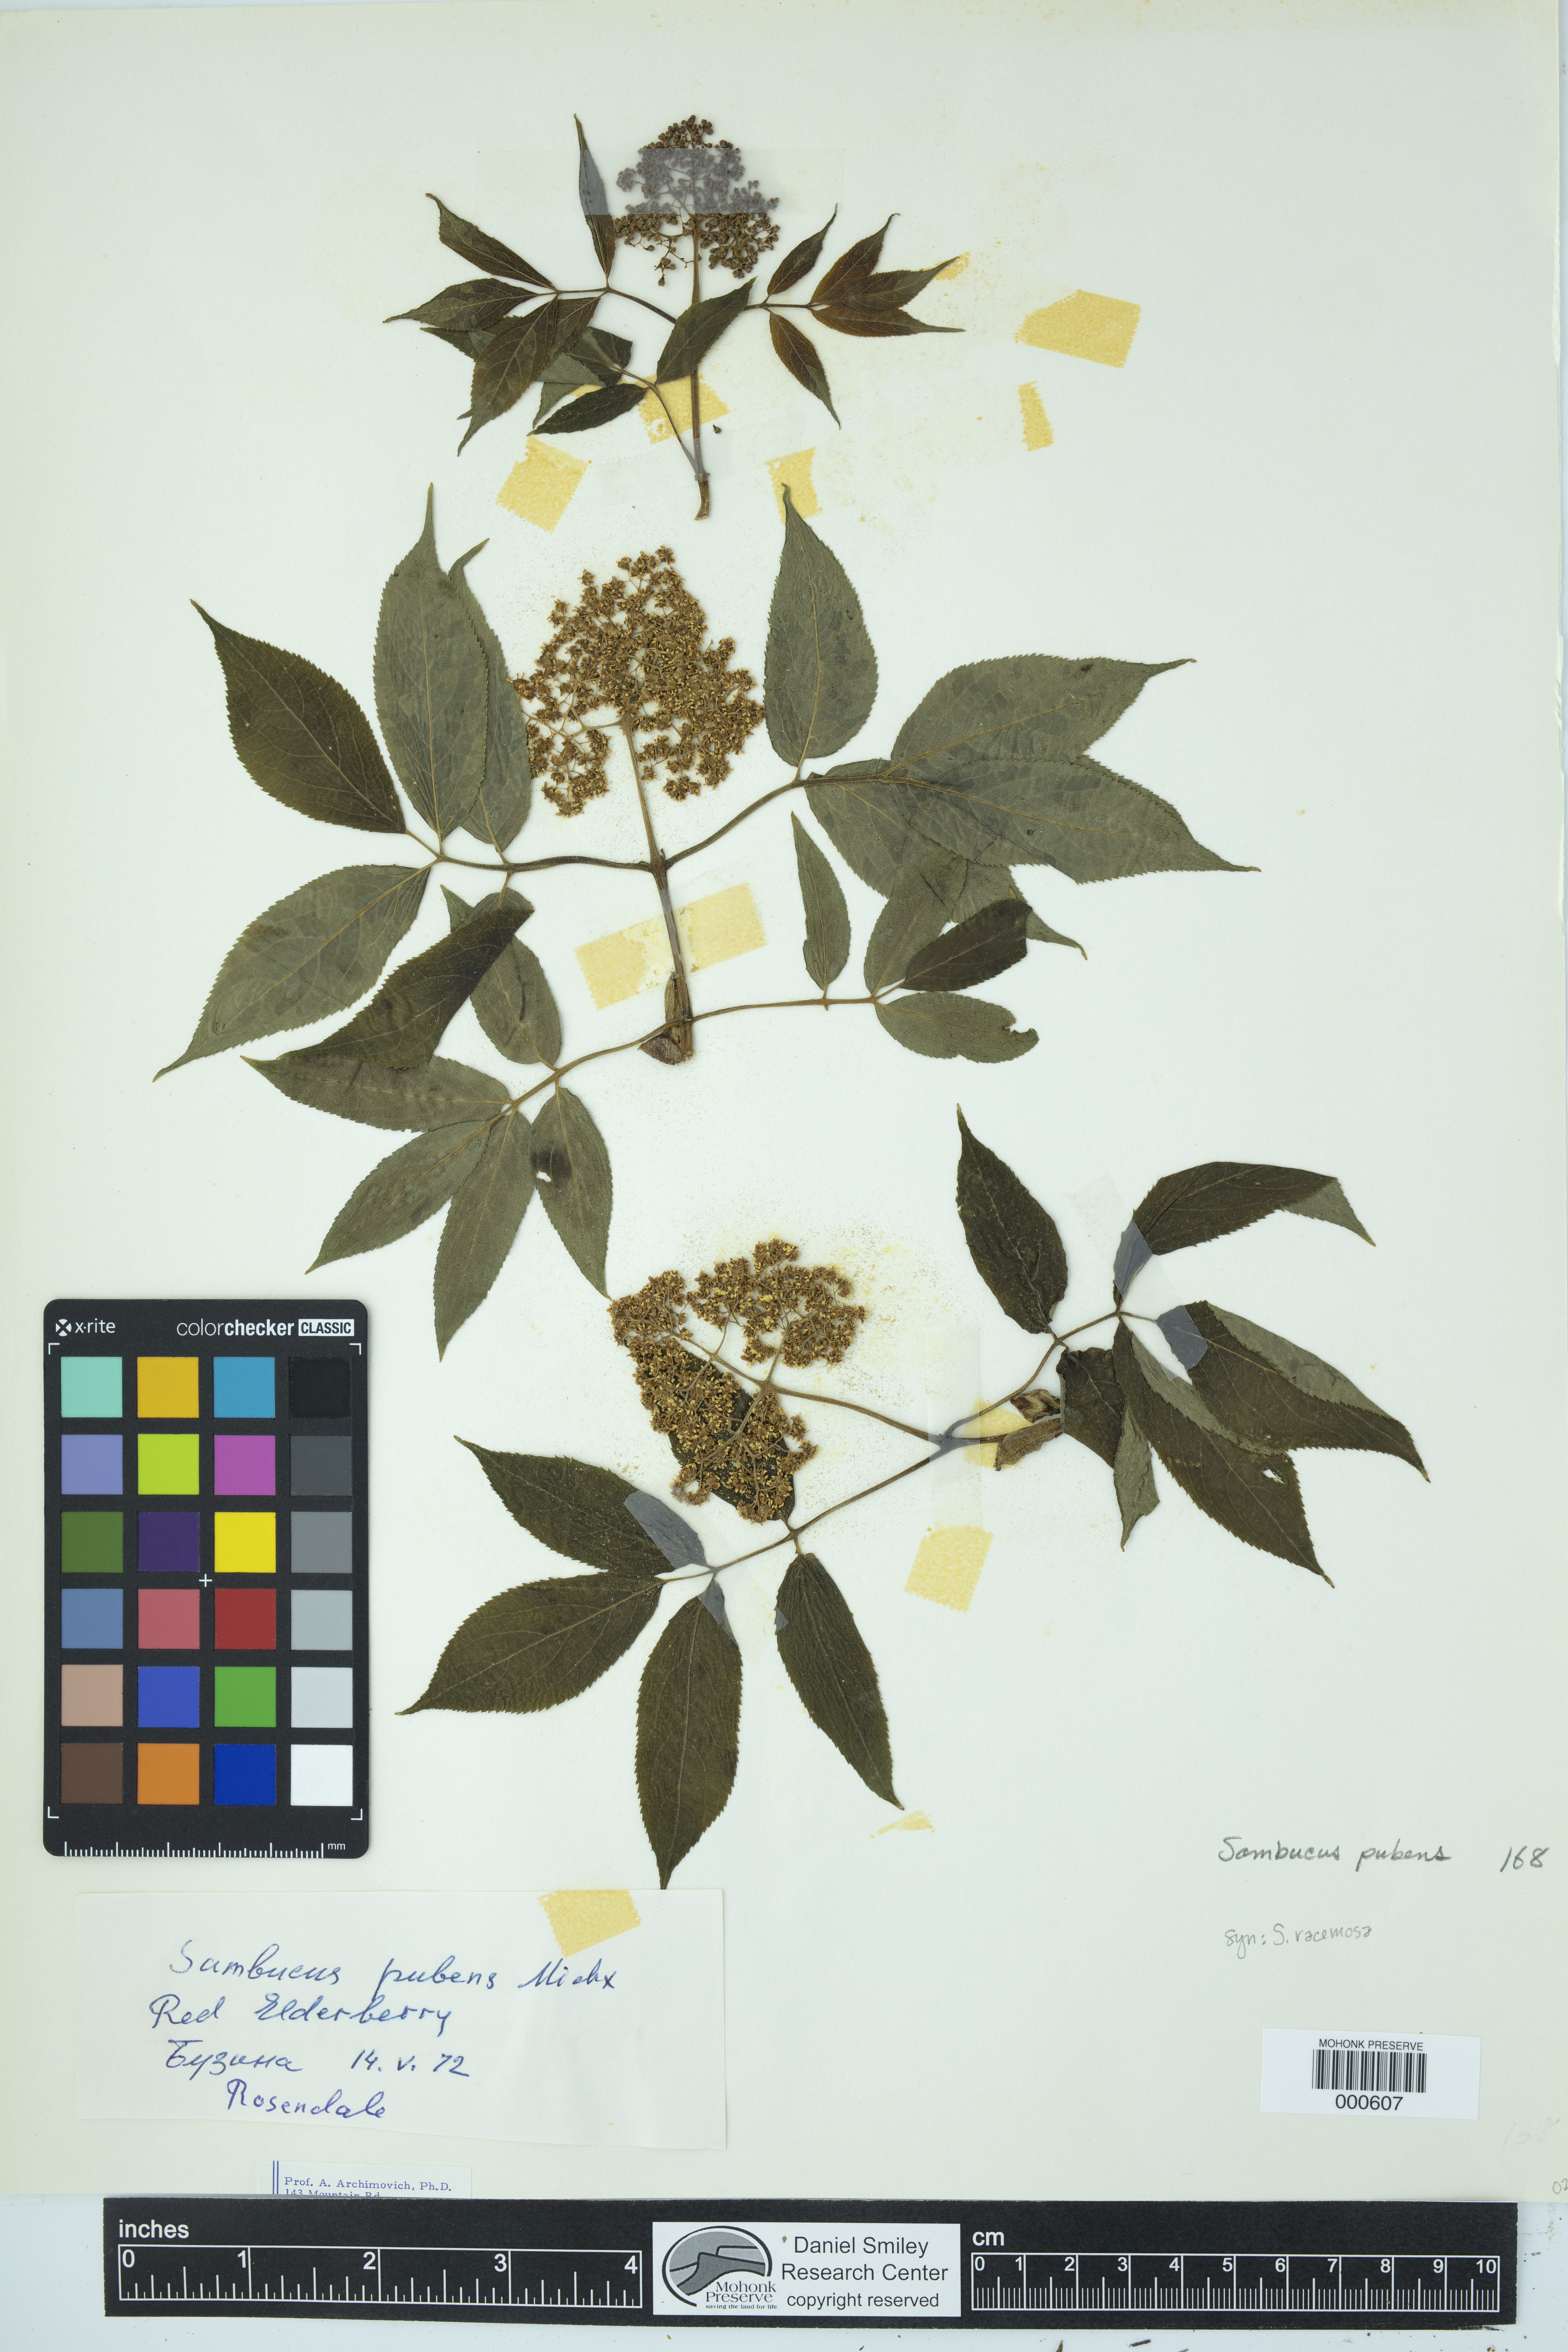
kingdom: Plantae
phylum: Tracheophyta
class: Magnoliopsida
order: Dipsacales
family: Viburnaceae
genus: Sambucus
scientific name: Sambucus racemosa
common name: Red-berried elder
